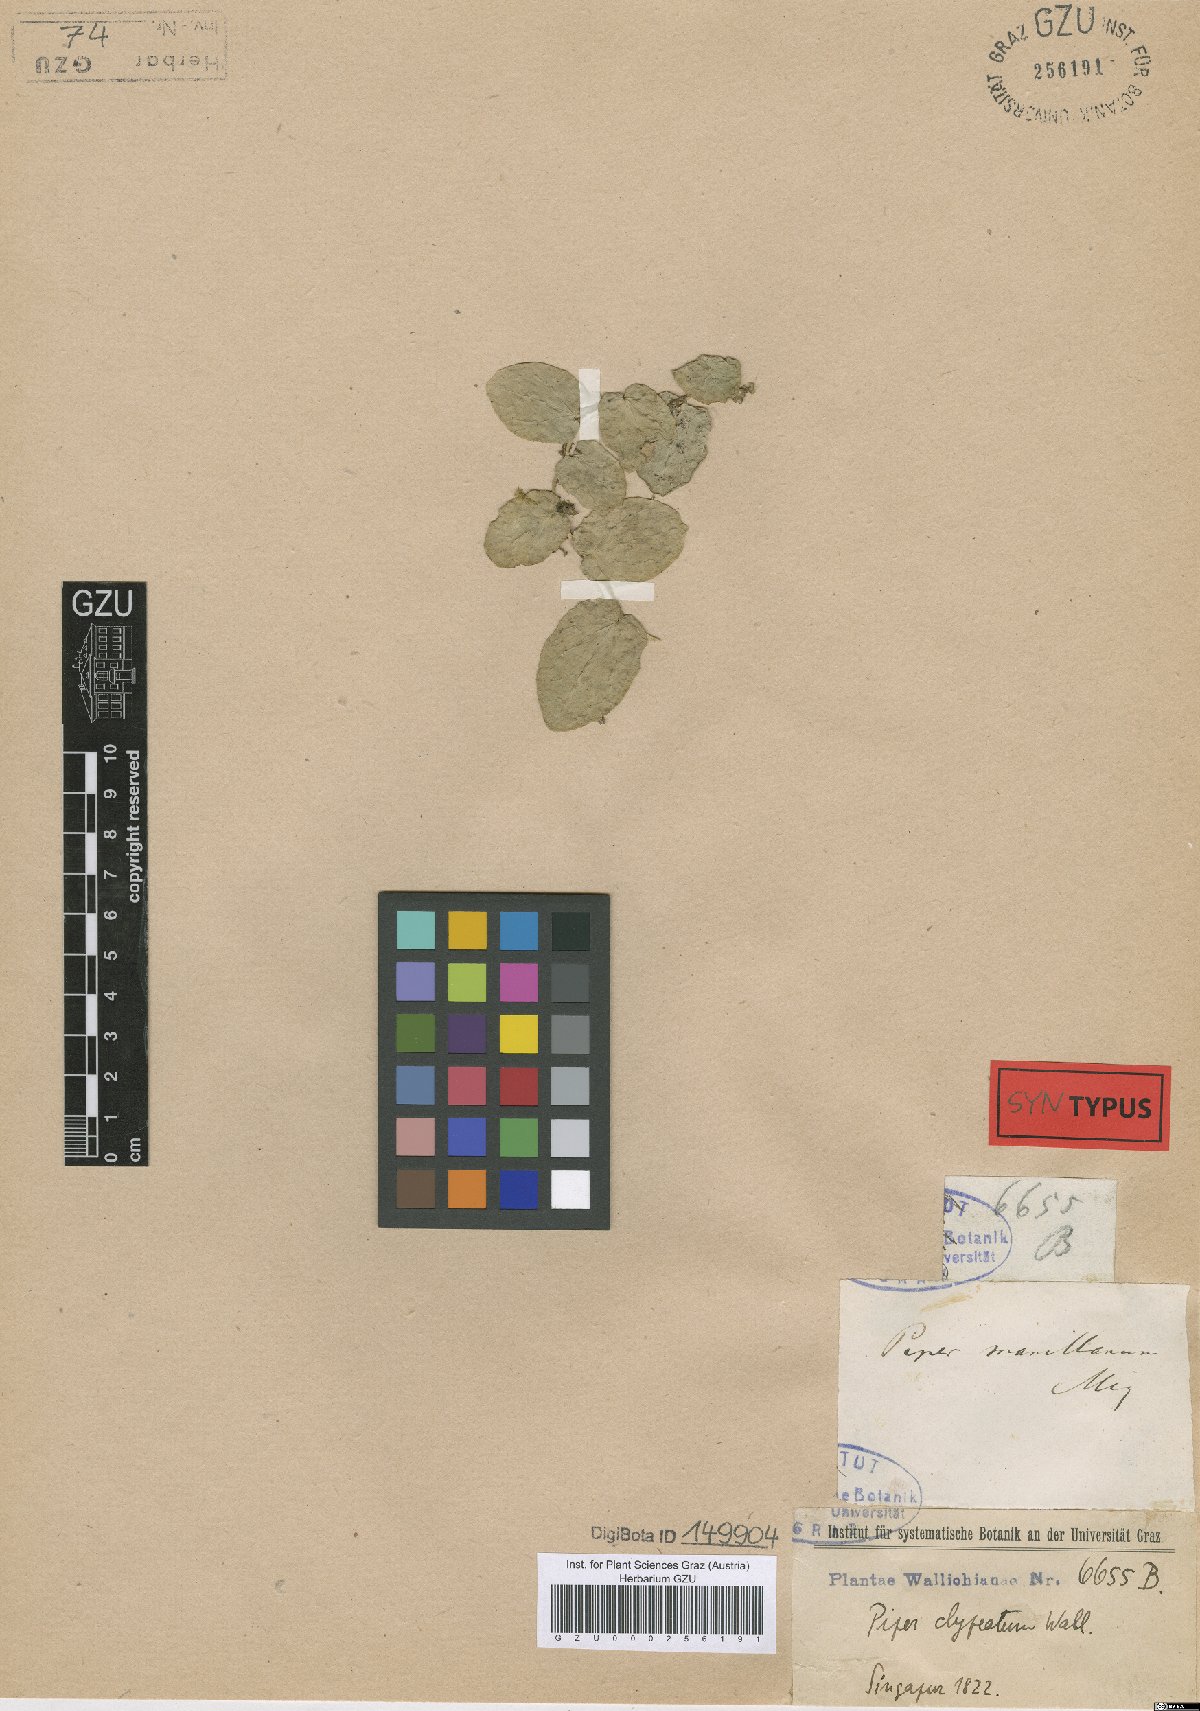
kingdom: Plantae
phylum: Tracheophyta
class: Magnoliopsida
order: Piperales
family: Piperaceae
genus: Piper
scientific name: Piper obtusissimum
